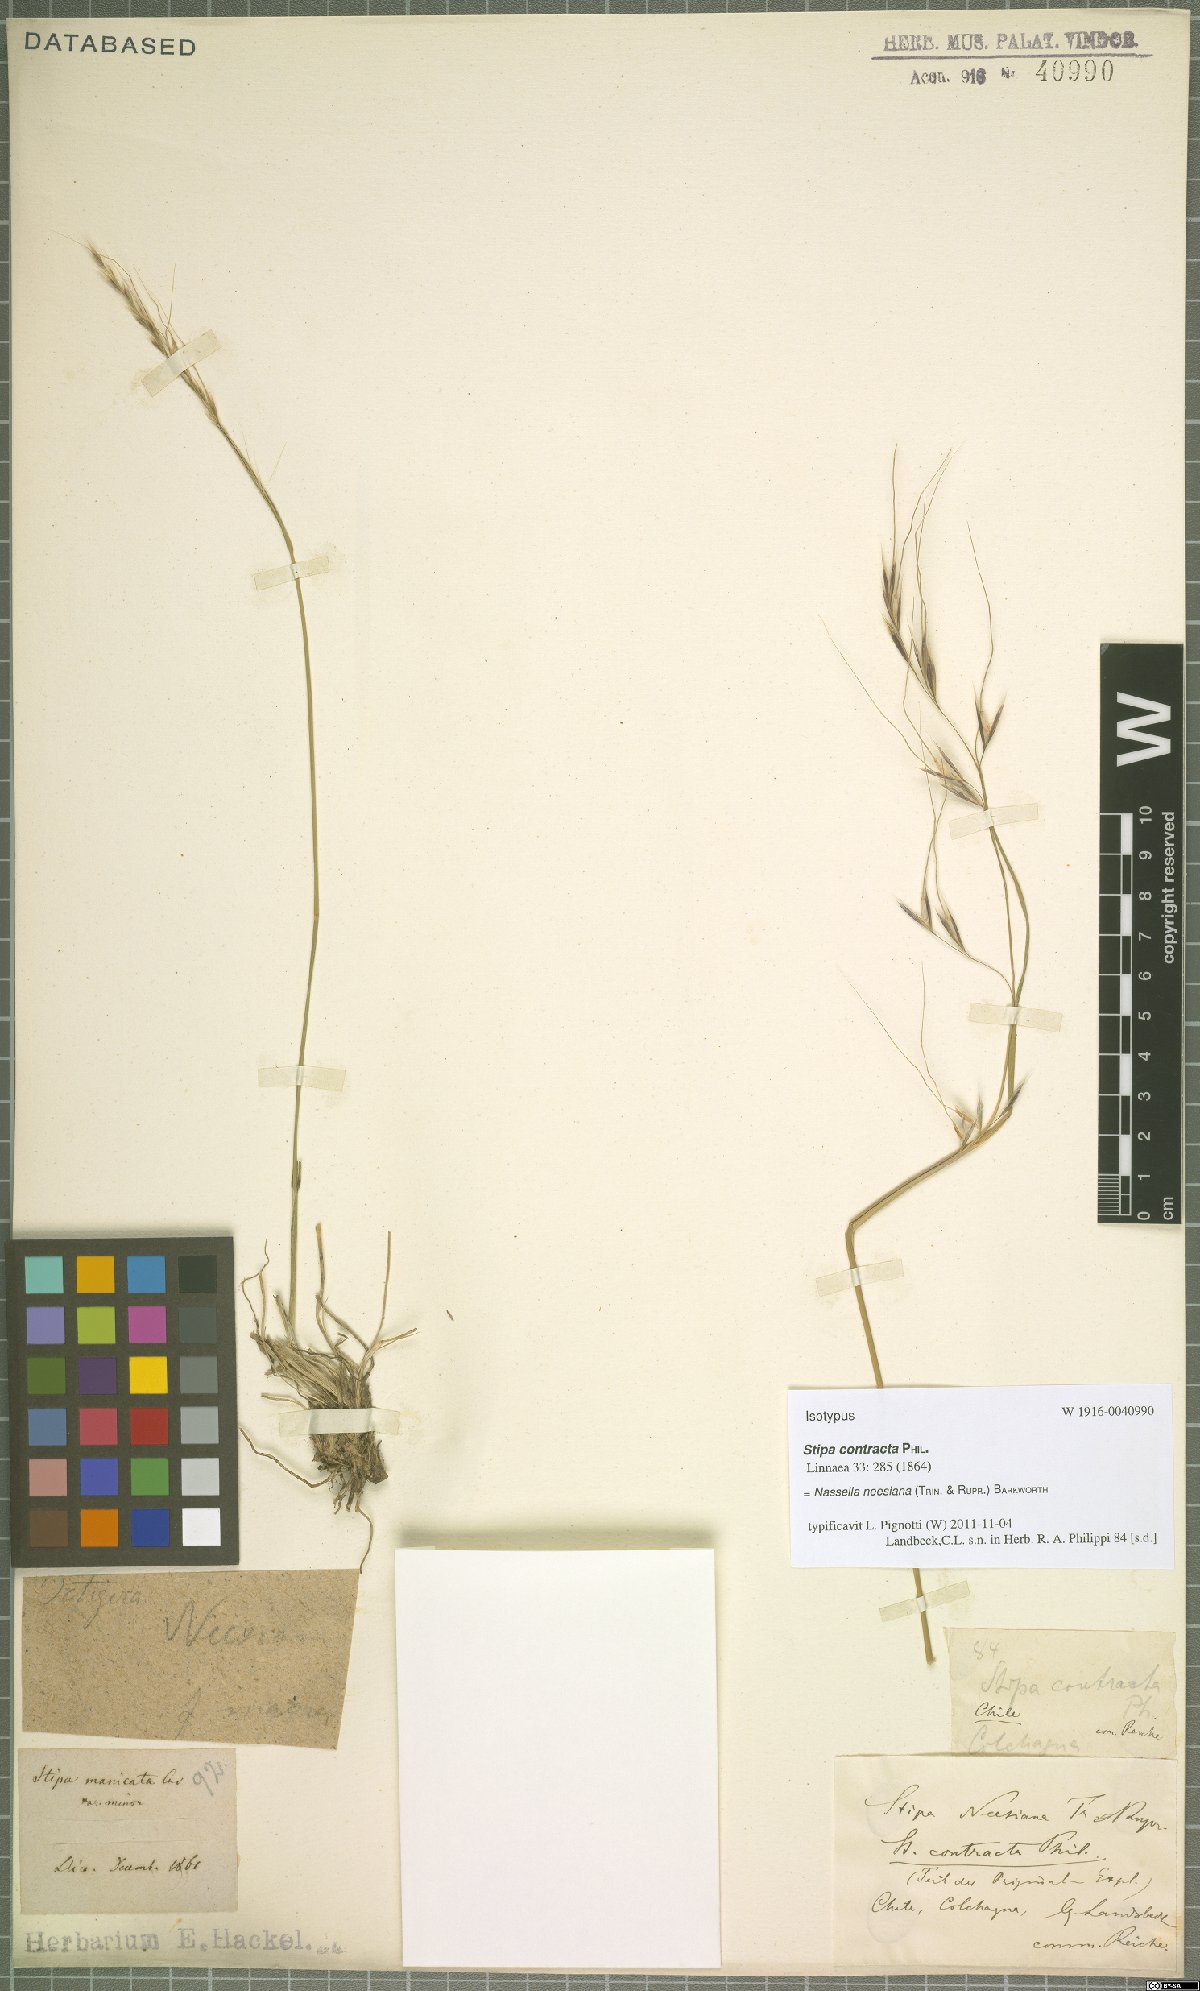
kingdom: Plantae
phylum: Tracheophyta
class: Liliopsida
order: Poales
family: Poaceae
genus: Nassella
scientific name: Nassella neesiana
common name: American needle-grass
